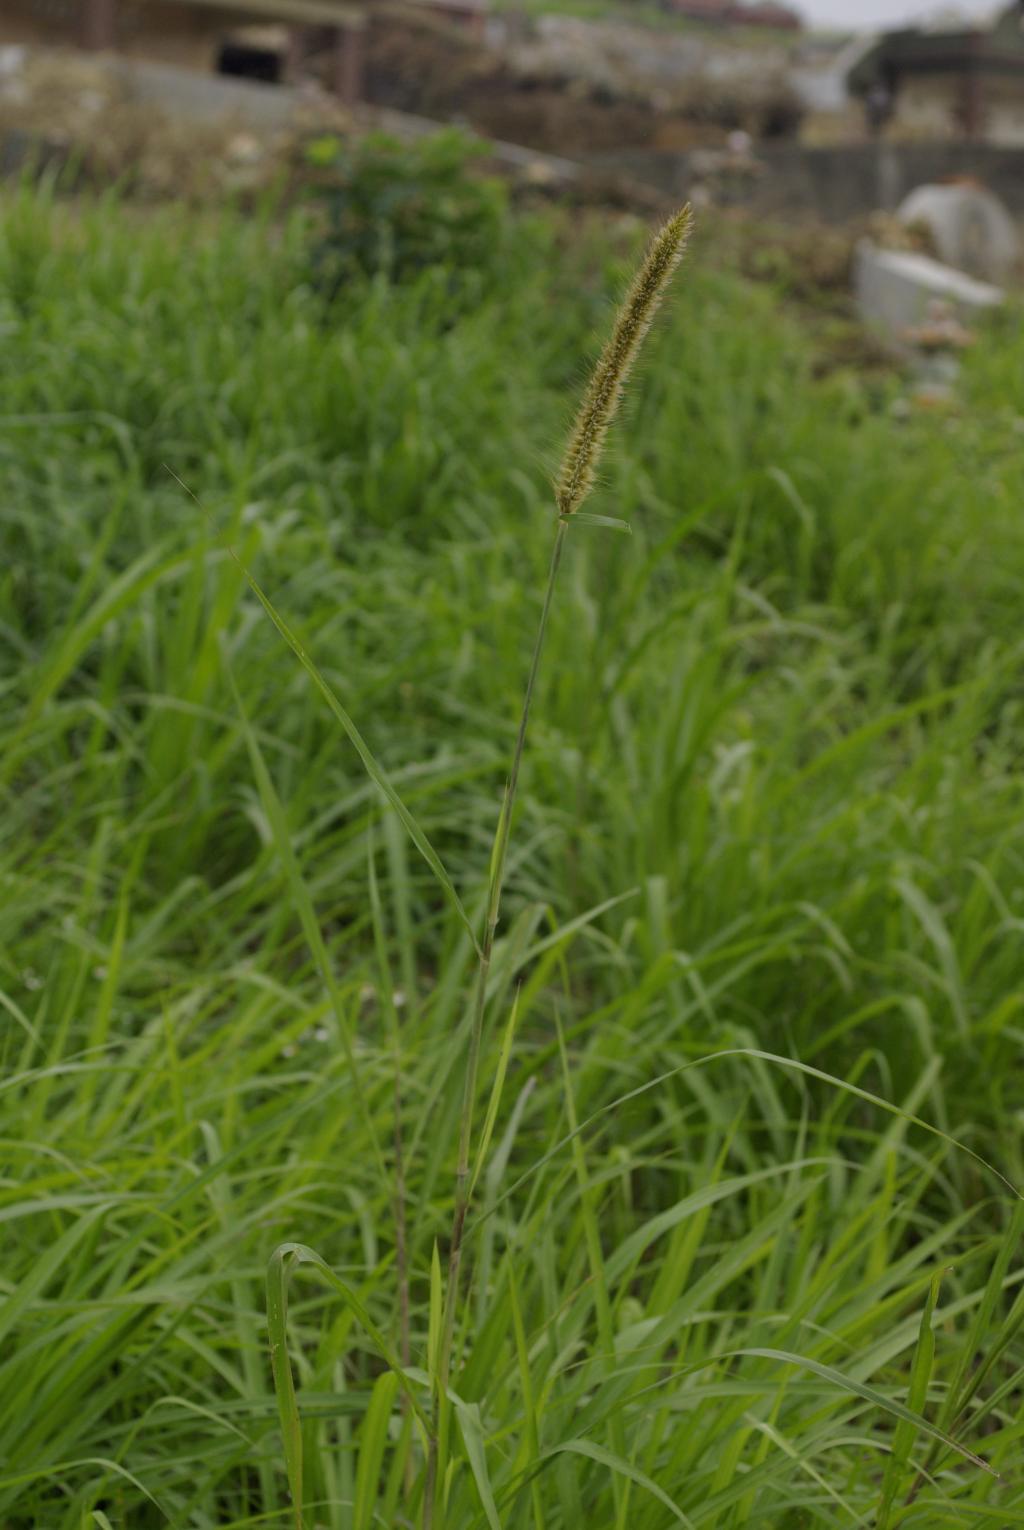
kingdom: Plantae
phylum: Tracheophyta
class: Liliopsida
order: Poales
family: Poaceae
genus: Cenchrus
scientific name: Cenchrus purpureus
